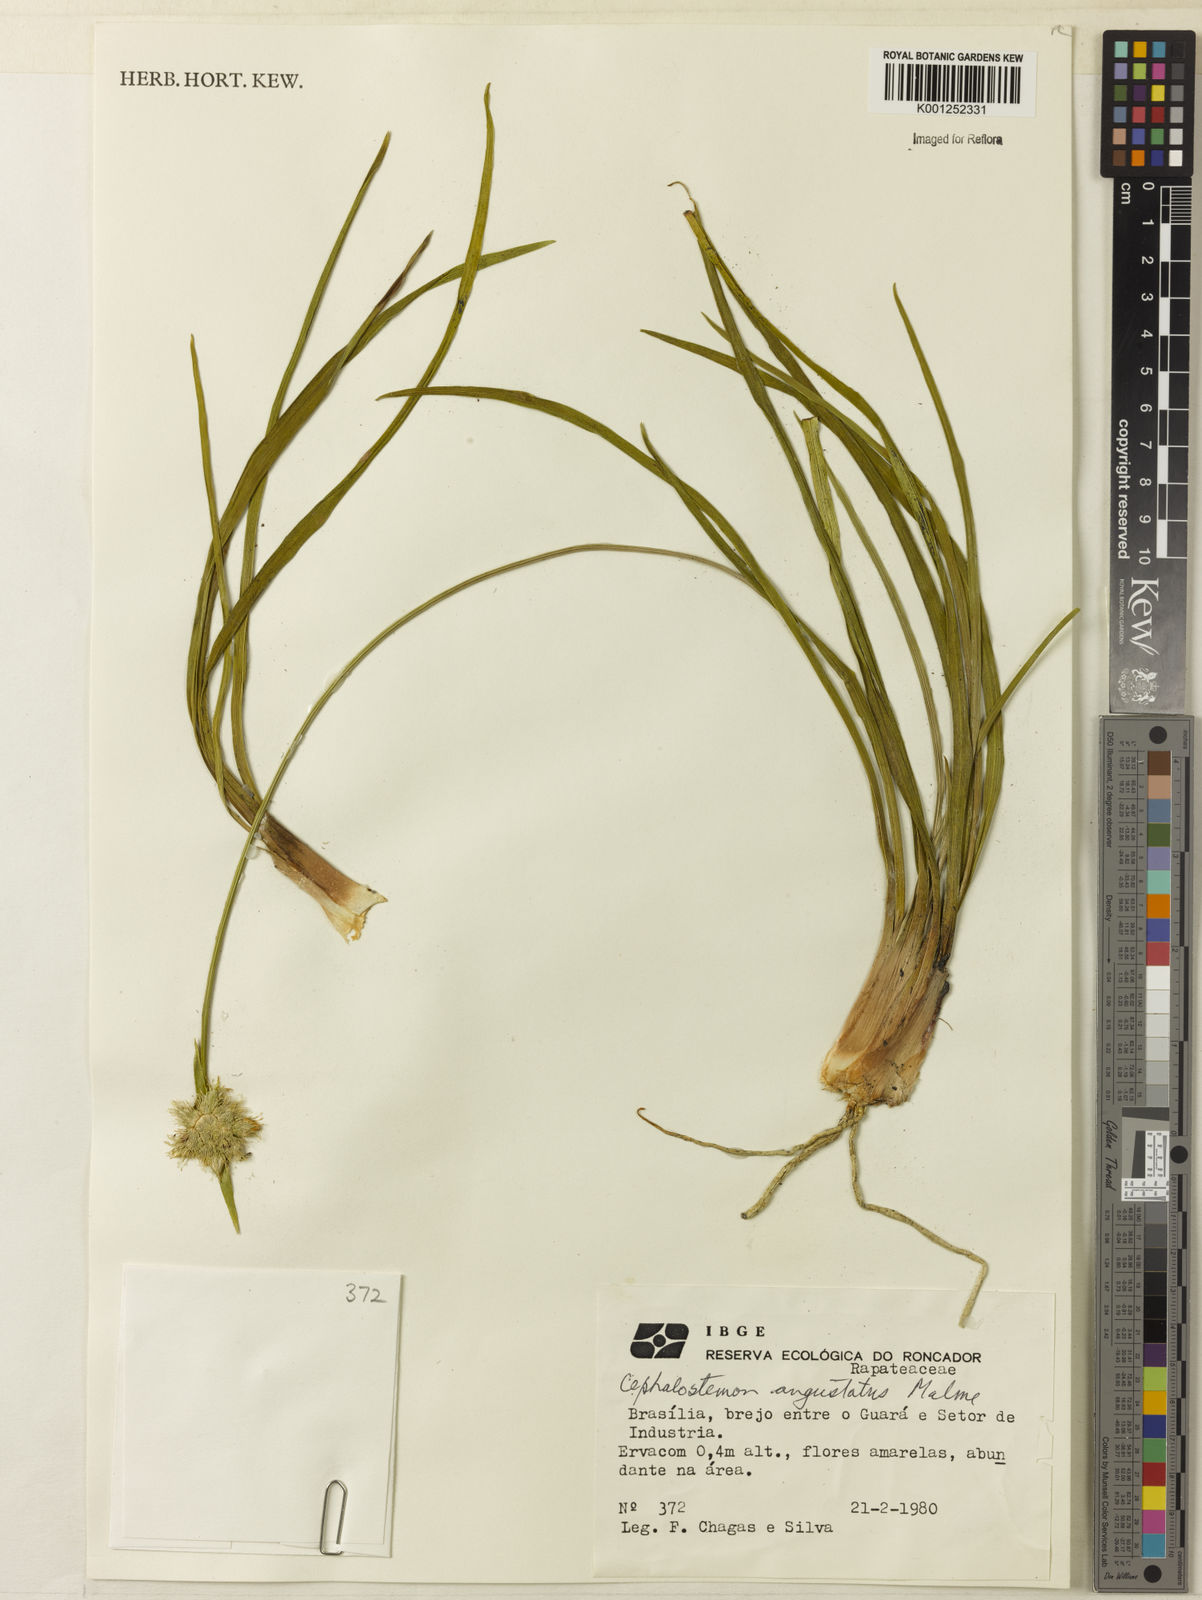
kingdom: Plantae
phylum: Tracheophyta
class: Liliopsida
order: Poales
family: Rapateaceae
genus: Cephalostemon
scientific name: Cephalostemon gracilis
